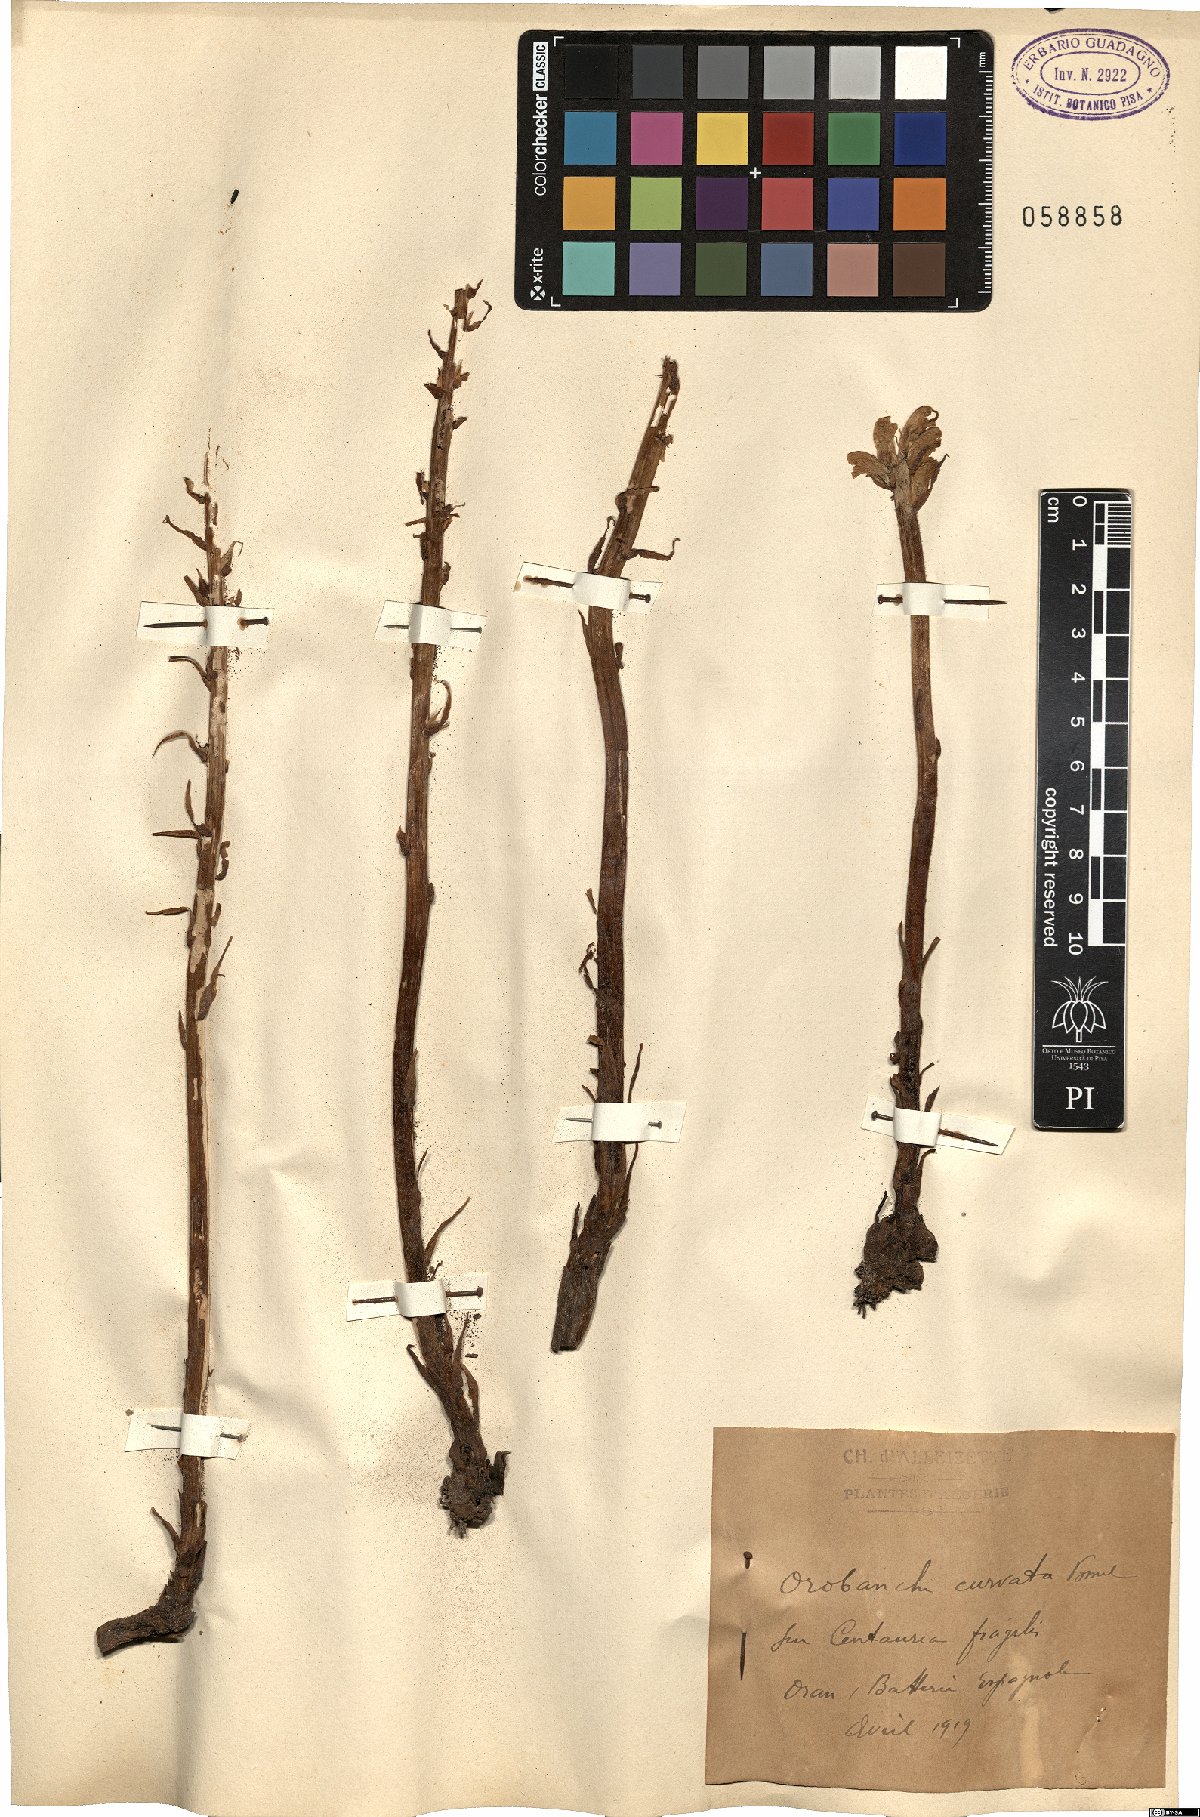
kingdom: Plantae
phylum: Tracheophyta
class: Magnoliopsida
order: Lamiales
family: Orobanchaceae
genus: Orobanche
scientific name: Orobanche leptantha
